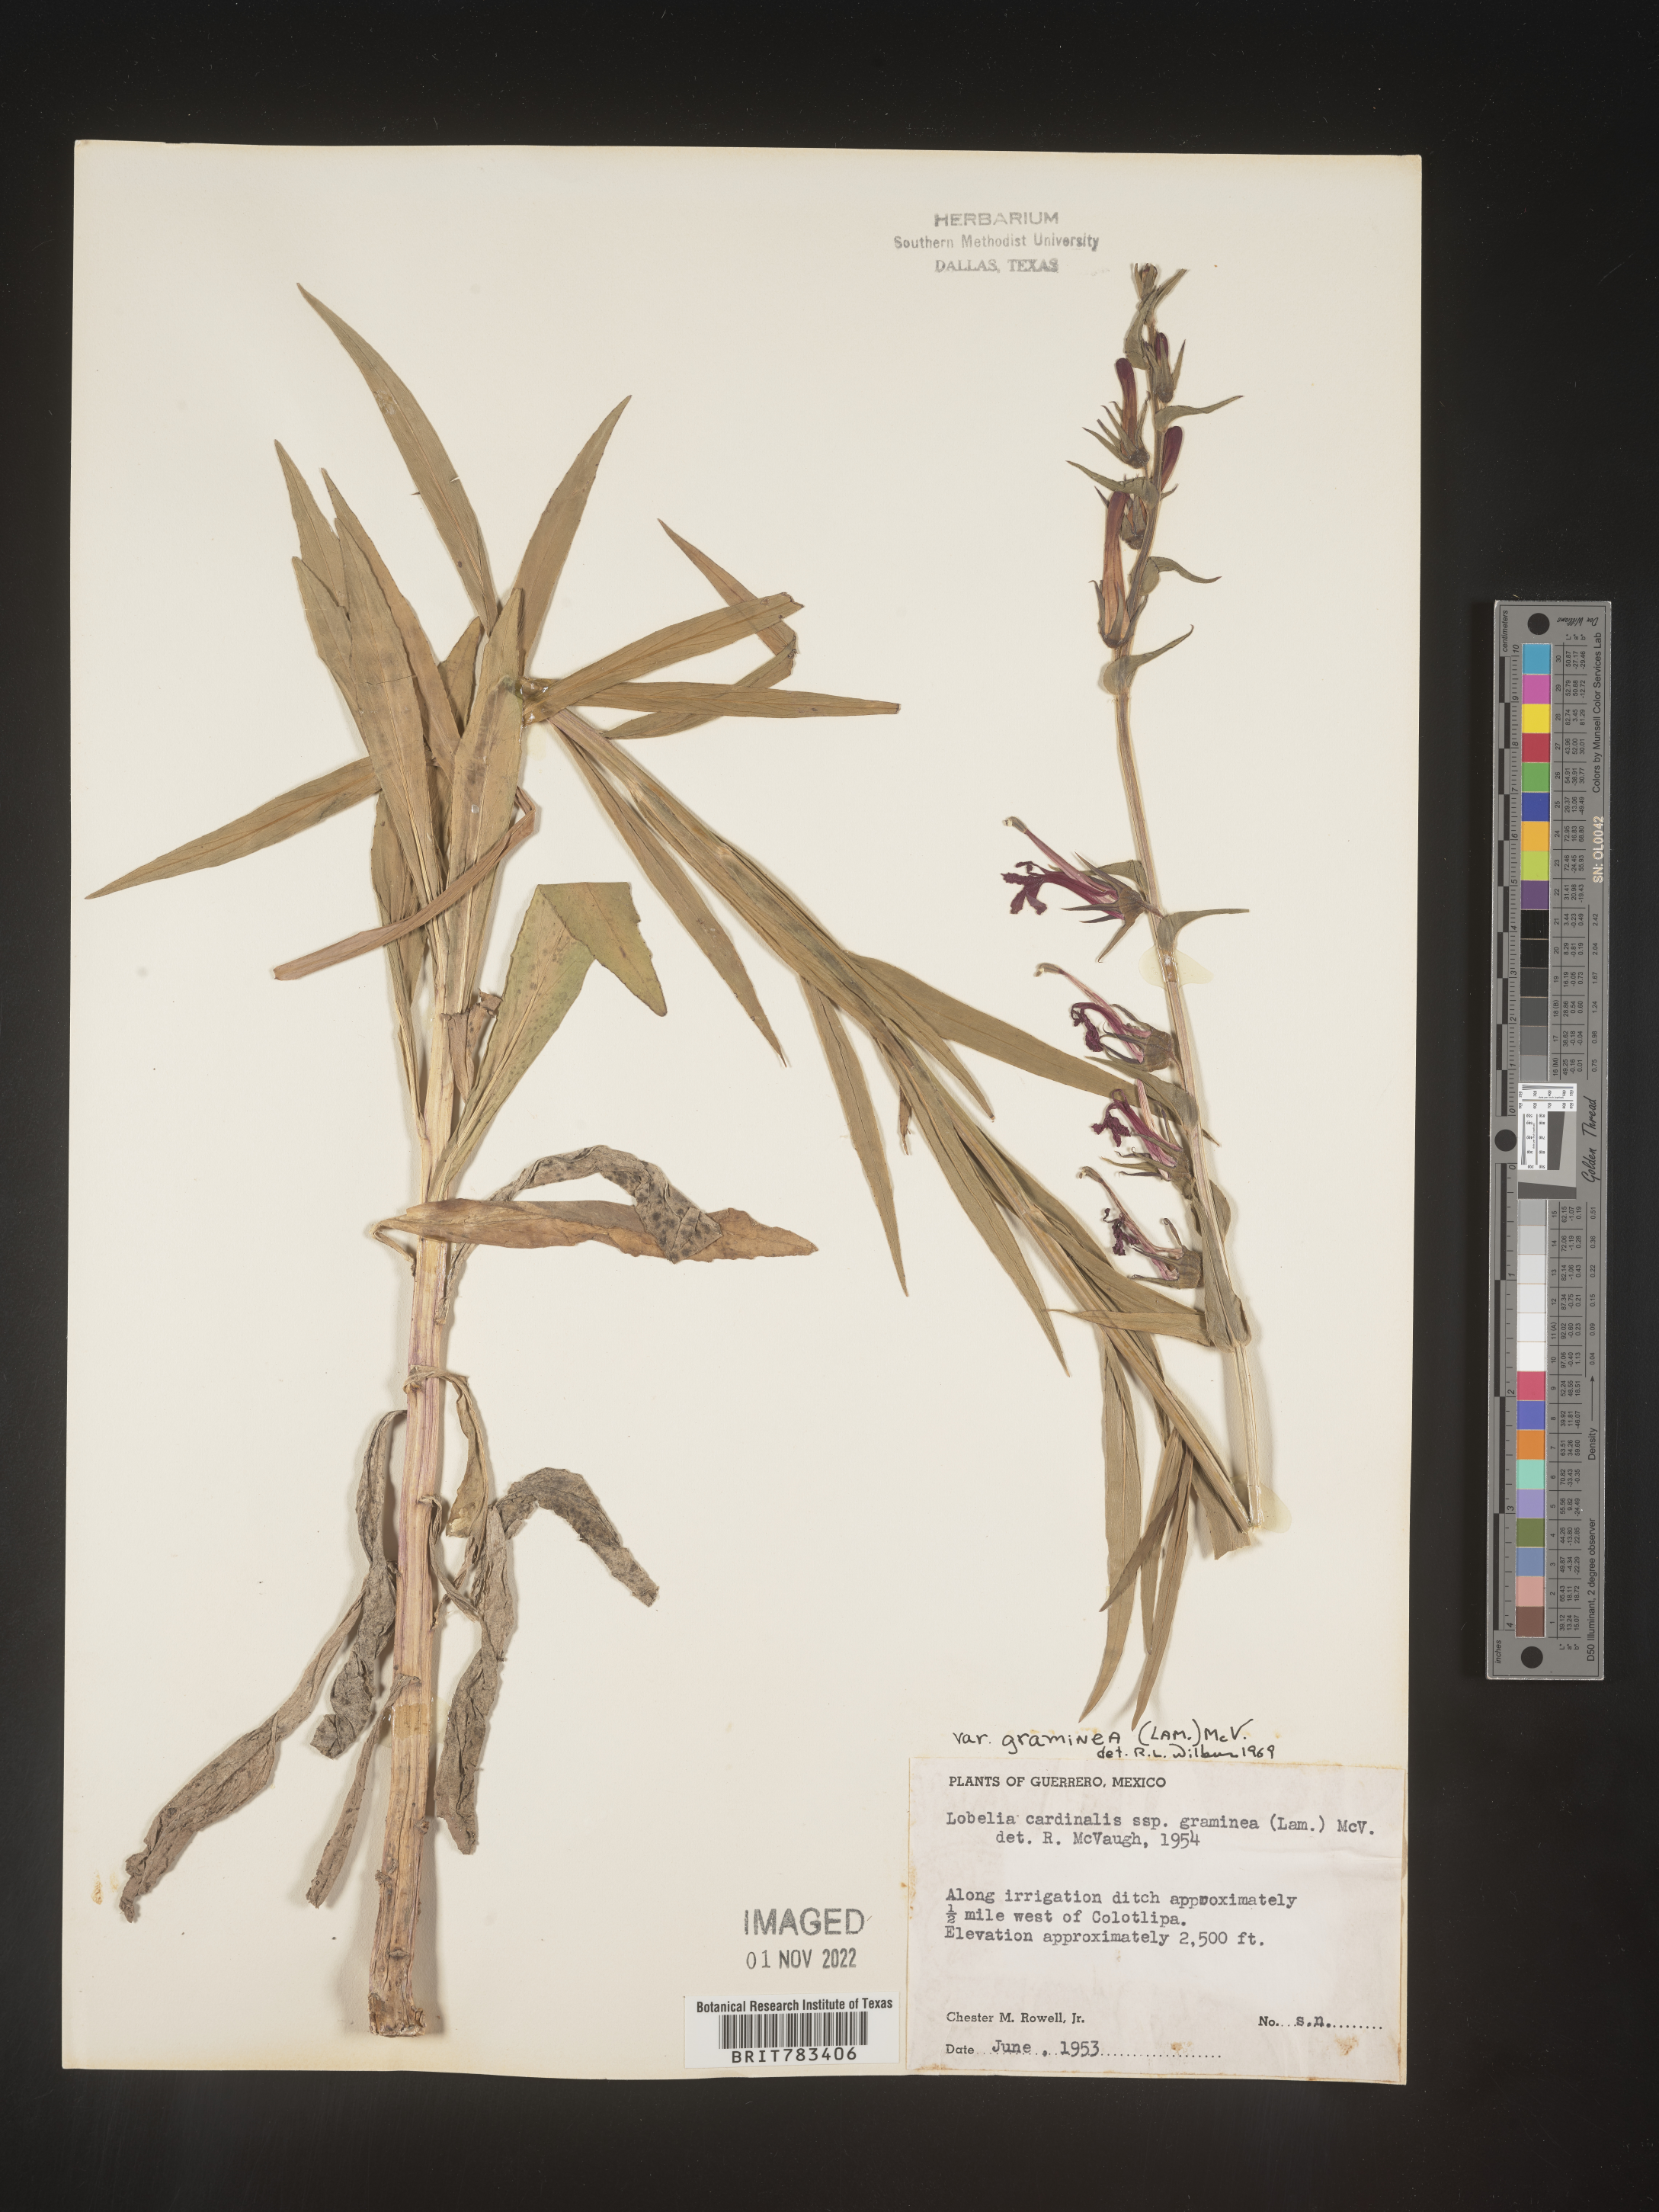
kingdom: Plantae
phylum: Tracheophyta
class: Magnoliopsida
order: Asterales
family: Campanulaceae
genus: Lobelia
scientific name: Lobelia
